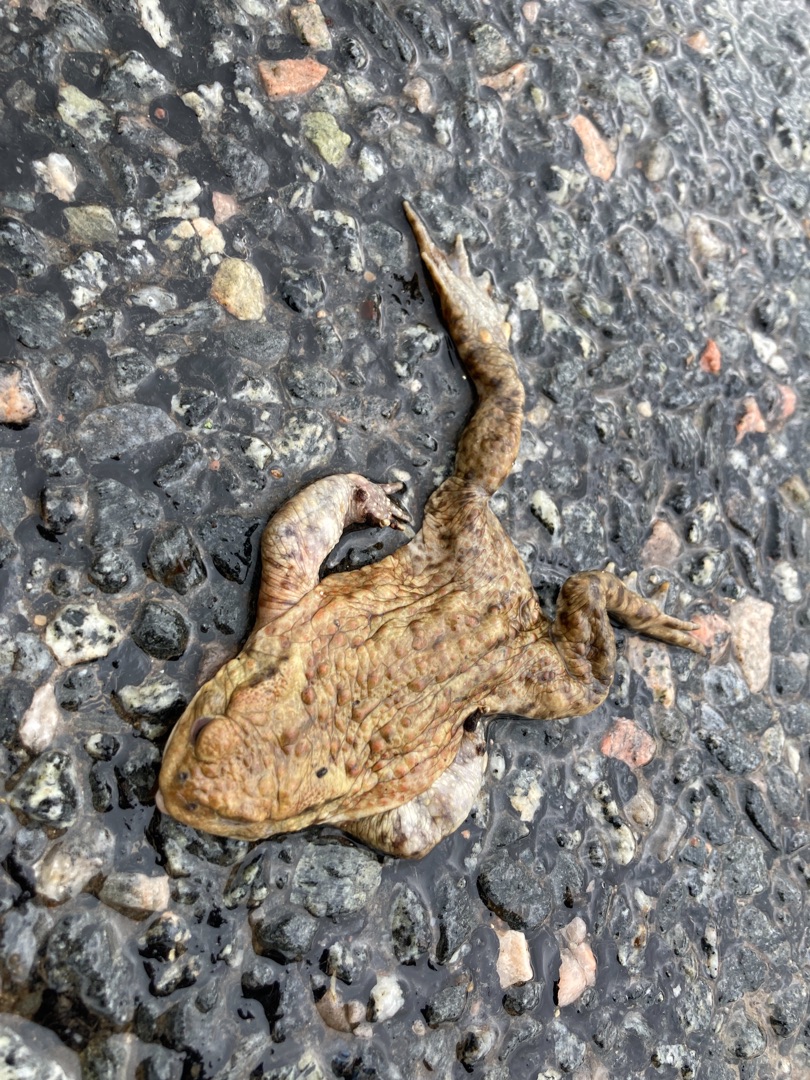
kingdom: Animalia
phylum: Chordata
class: Amphibia
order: Anura
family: Bufonidae
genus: Bufo
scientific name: Bufo bufo
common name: Skrubtudse
